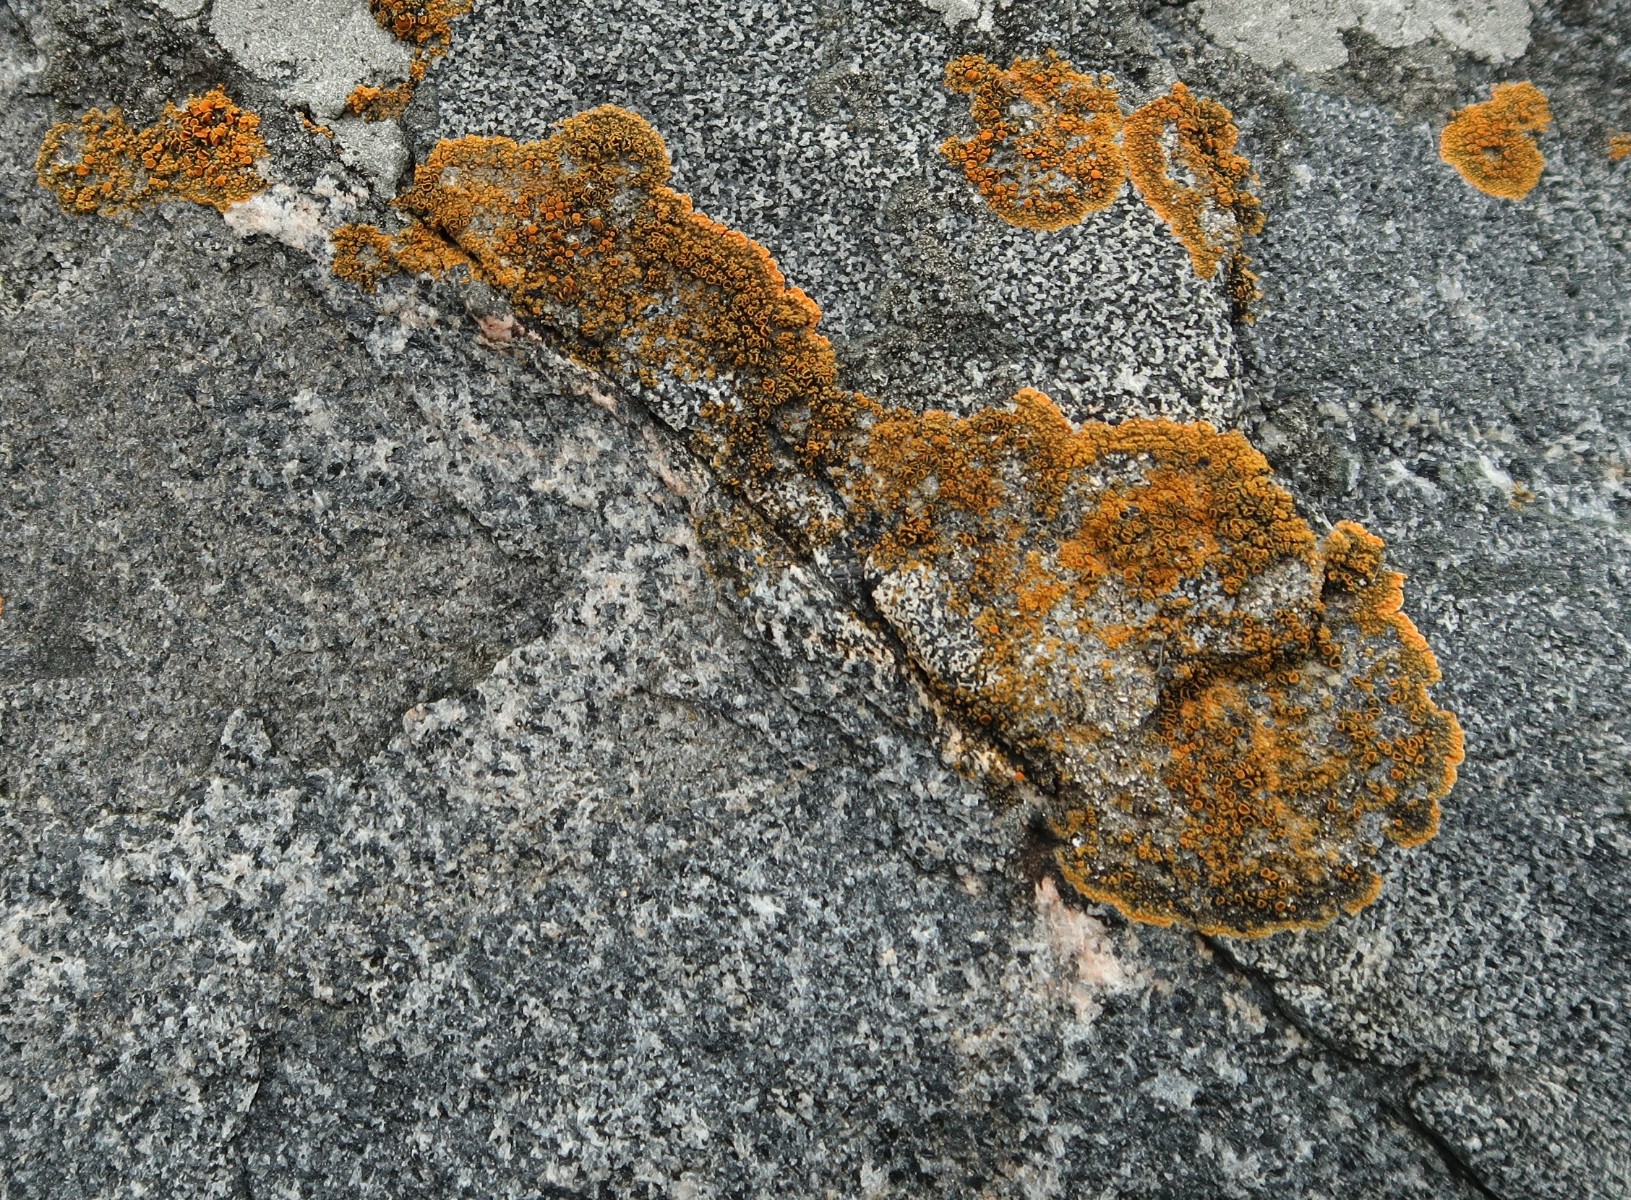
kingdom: Fungi
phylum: Ascomycota
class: Lecanoromycetes
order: Teloschistales
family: Teloschistaceae
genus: Flavoplaca
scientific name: Flavoplaca marina
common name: strand-orangelav
